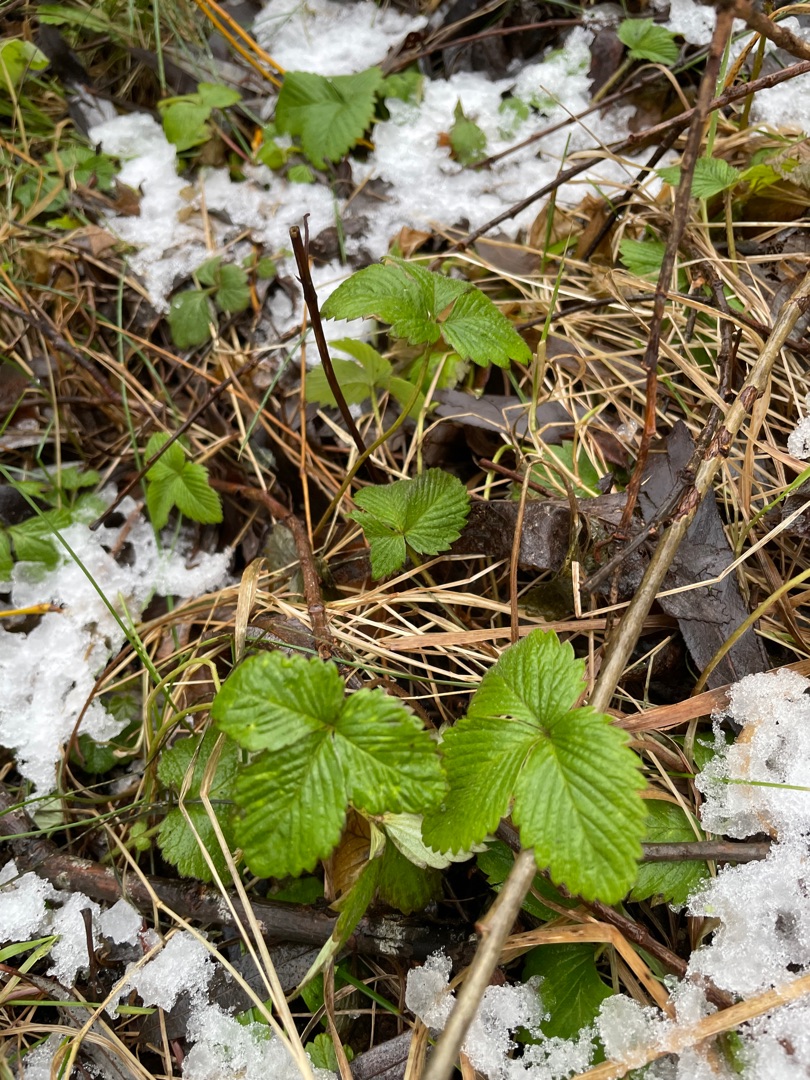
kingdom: Plantae
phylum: Tracheophyta
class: Magnoliopsida
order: Rosales
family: Rosaceae
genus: Fragaria
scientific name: Fragaria vesca
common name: Skov-jordbær
